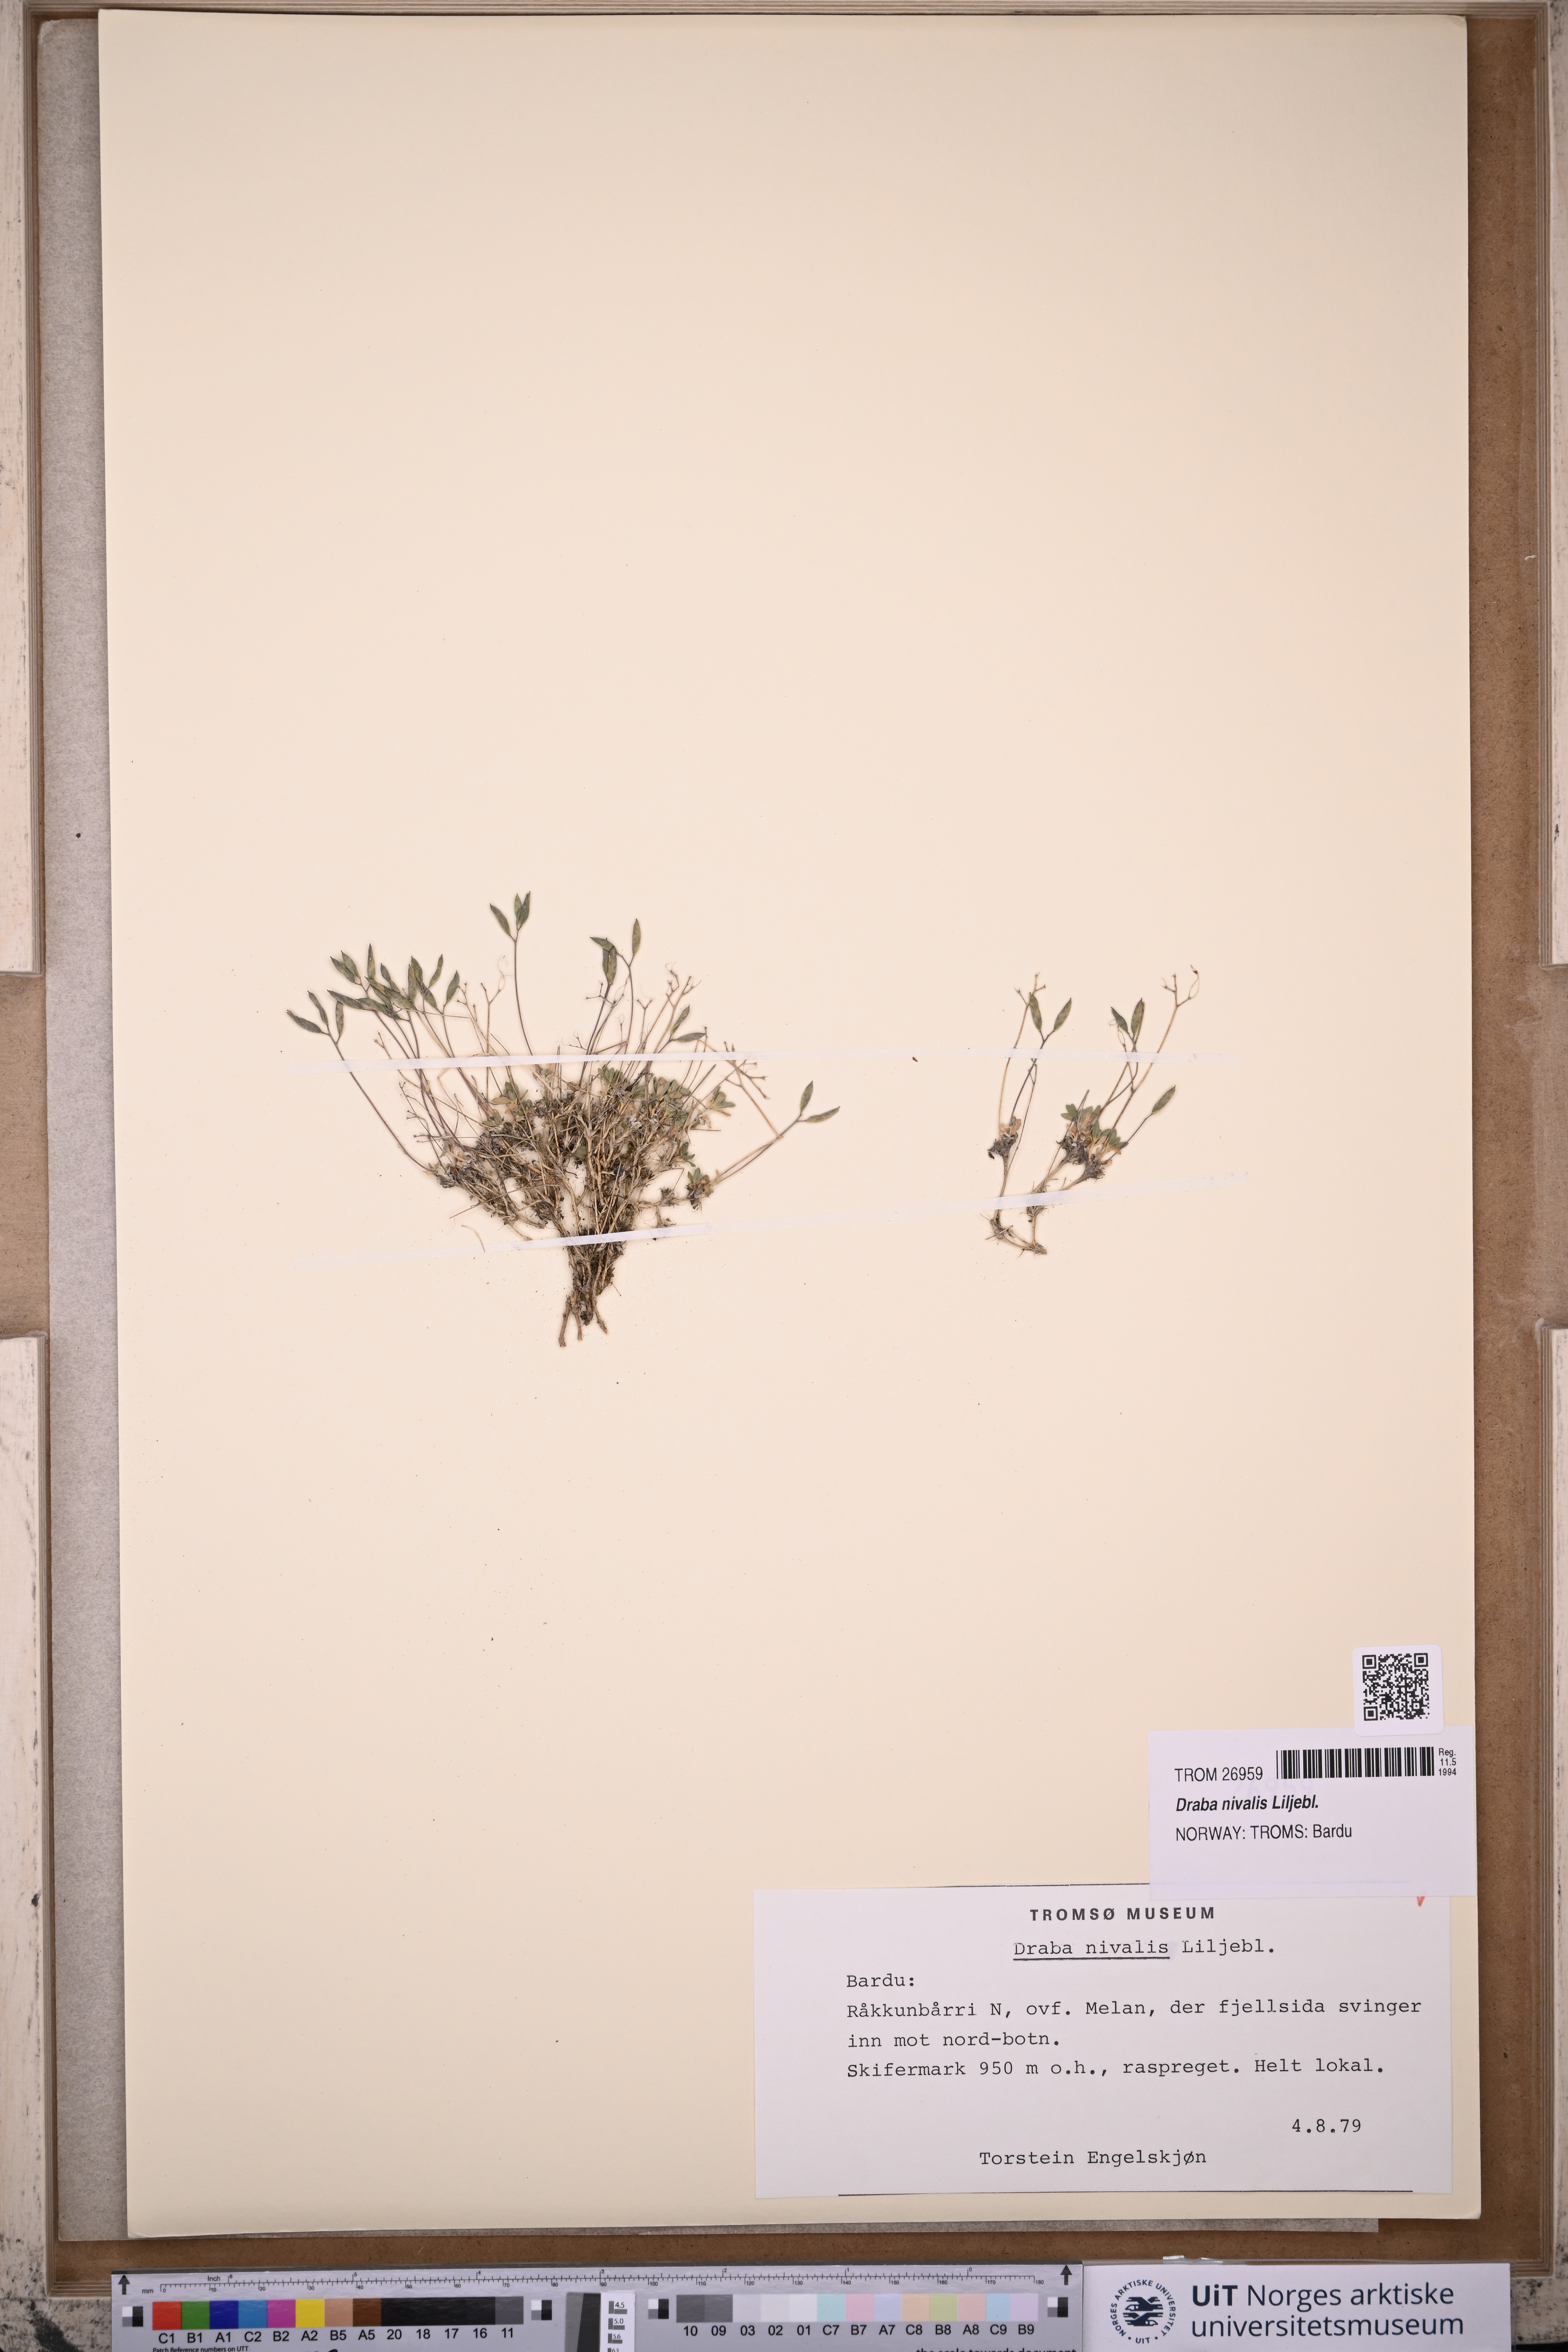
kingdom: Plantae
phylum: Tracheophyta
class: Magnoliopsida
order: Brassicales
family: Brassicaceae
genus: Draba
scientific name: Draba nivalis
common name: Snow draba
